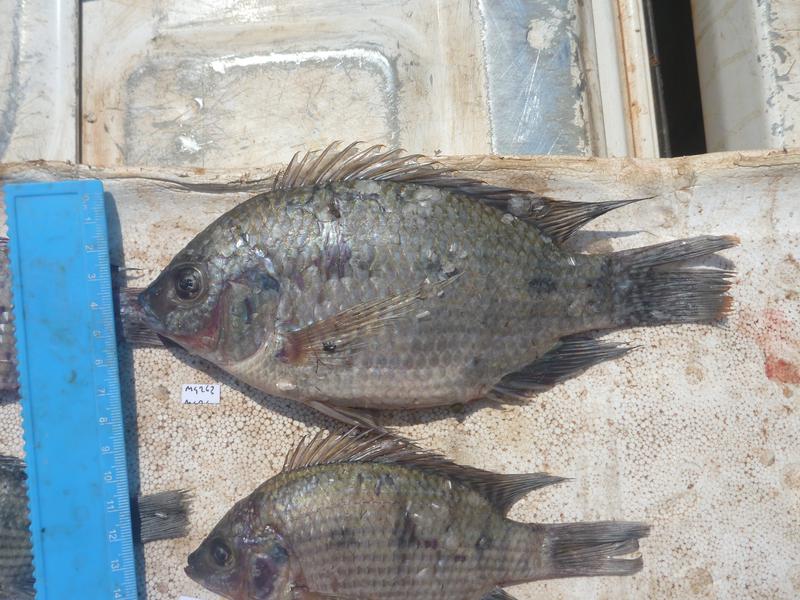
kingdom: Animalia
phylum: Chordata
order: Perciformes
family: Cichlidae
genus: Oreochromis
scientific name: Oreochromis upembae
